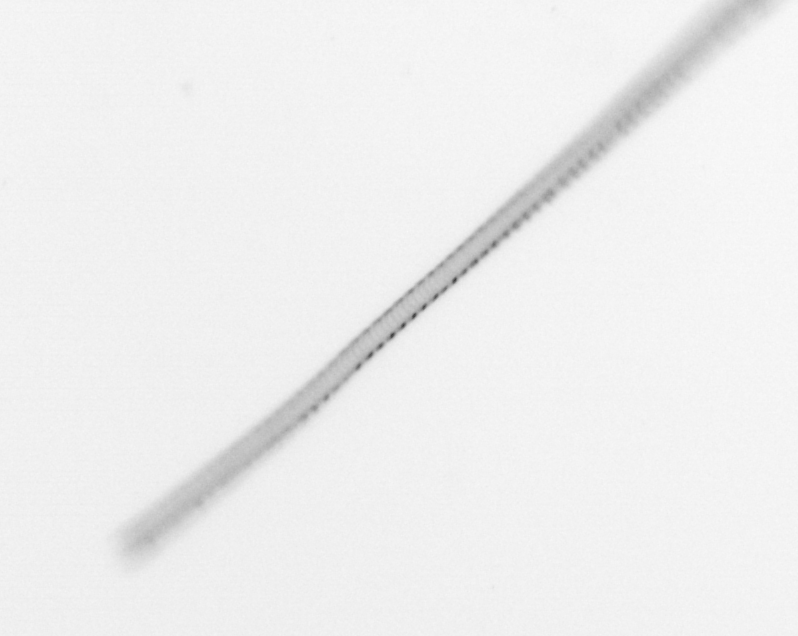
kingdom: Chromista
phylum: Ochrophyta
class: Bacillariophyceae
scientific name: Bacillariophyceae
